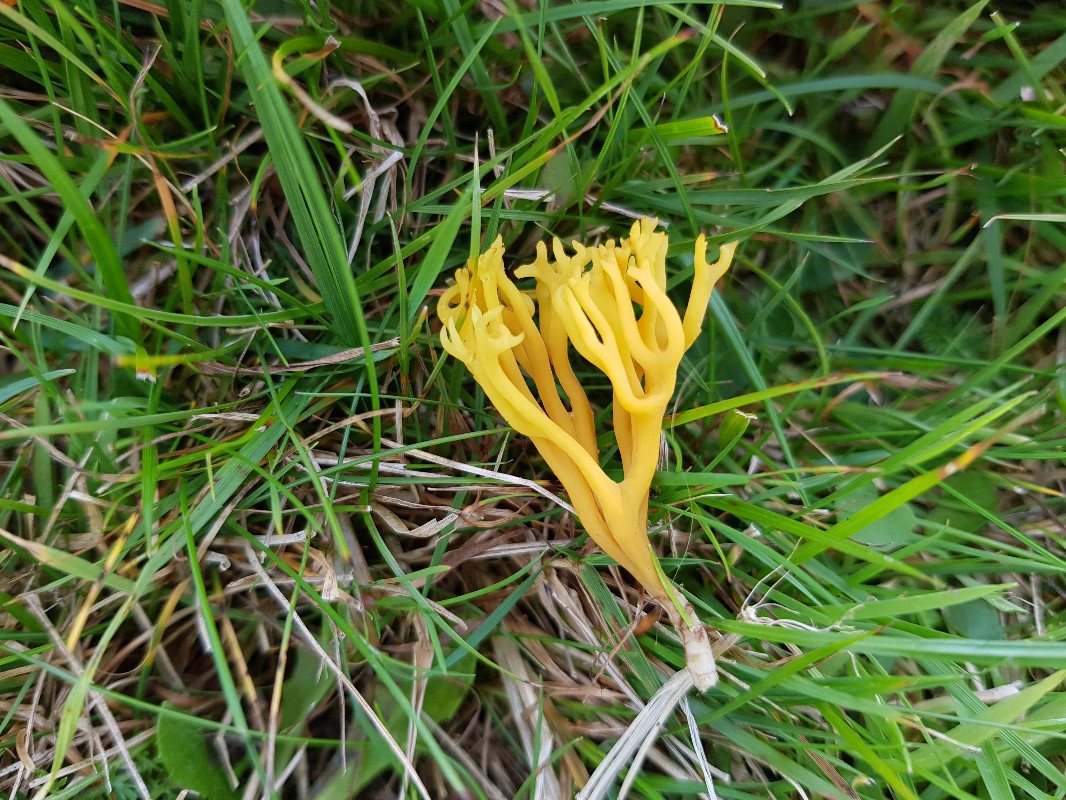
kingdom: Fungi
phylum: Basidiomycota
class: Agaricomycetes
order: Agaricales
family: Clavariaceae
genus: Clavulinopsis
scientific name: Clavulinopsis corniculata
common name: eng-køllesvamp
